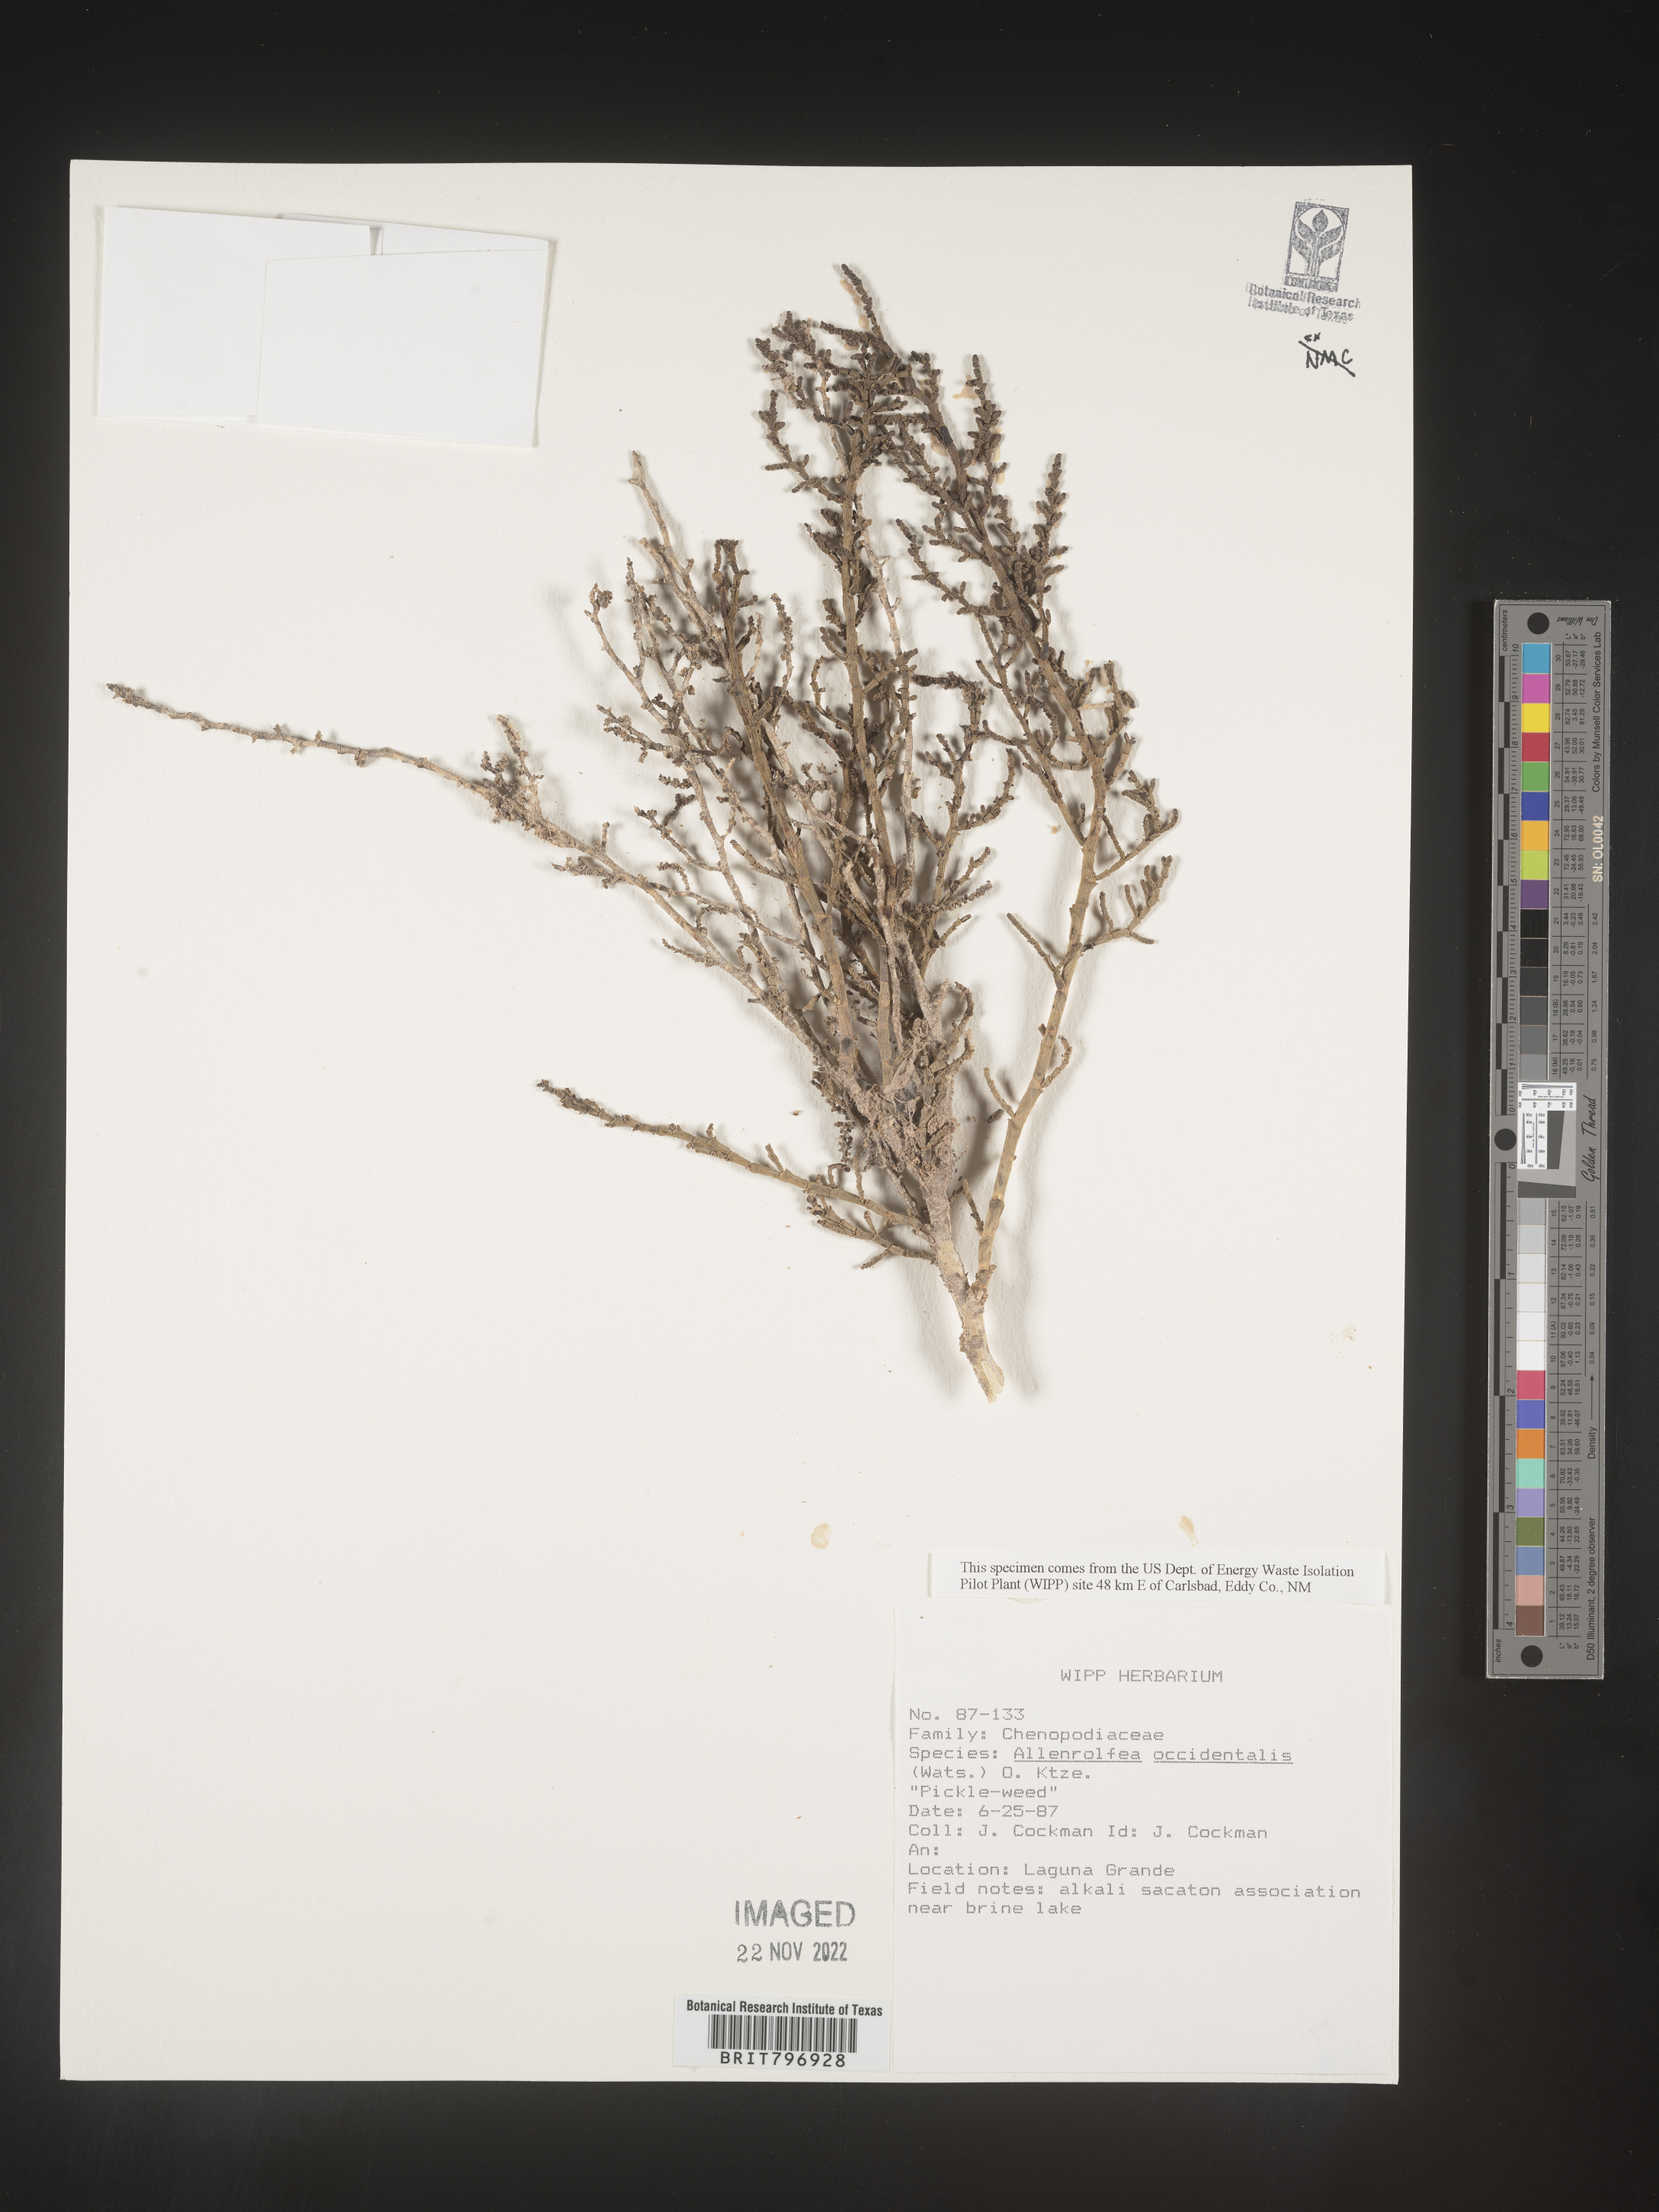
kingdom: Plantae
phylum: Tracheophyta
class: Magnoliopsida
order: Caryophyllales
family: Amaranthaceae
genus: Allenrolfea
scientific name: Allenrolfea
